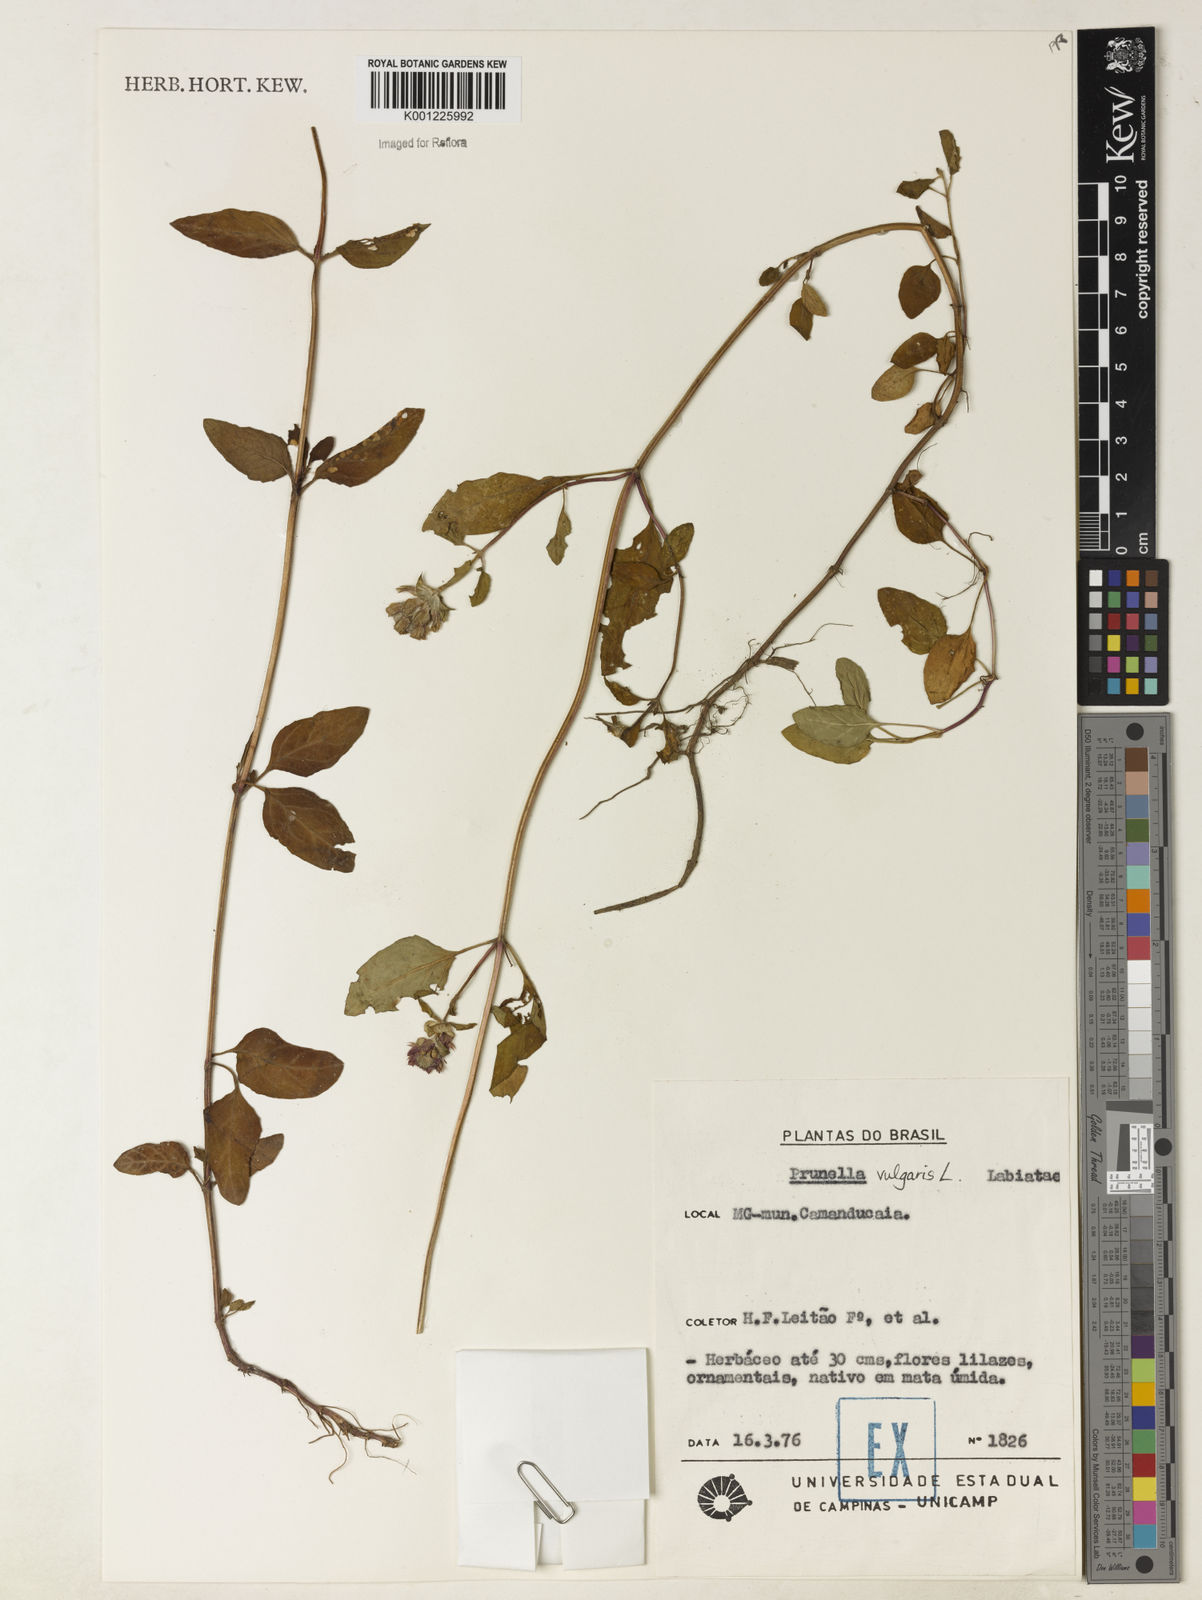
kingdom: Plantae
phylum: Tracheophyta
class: Magnoliopsida
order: Lamiales
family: Lamiaceae
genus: Prunella
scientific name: Prunella vulgaris
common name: Heal-all
